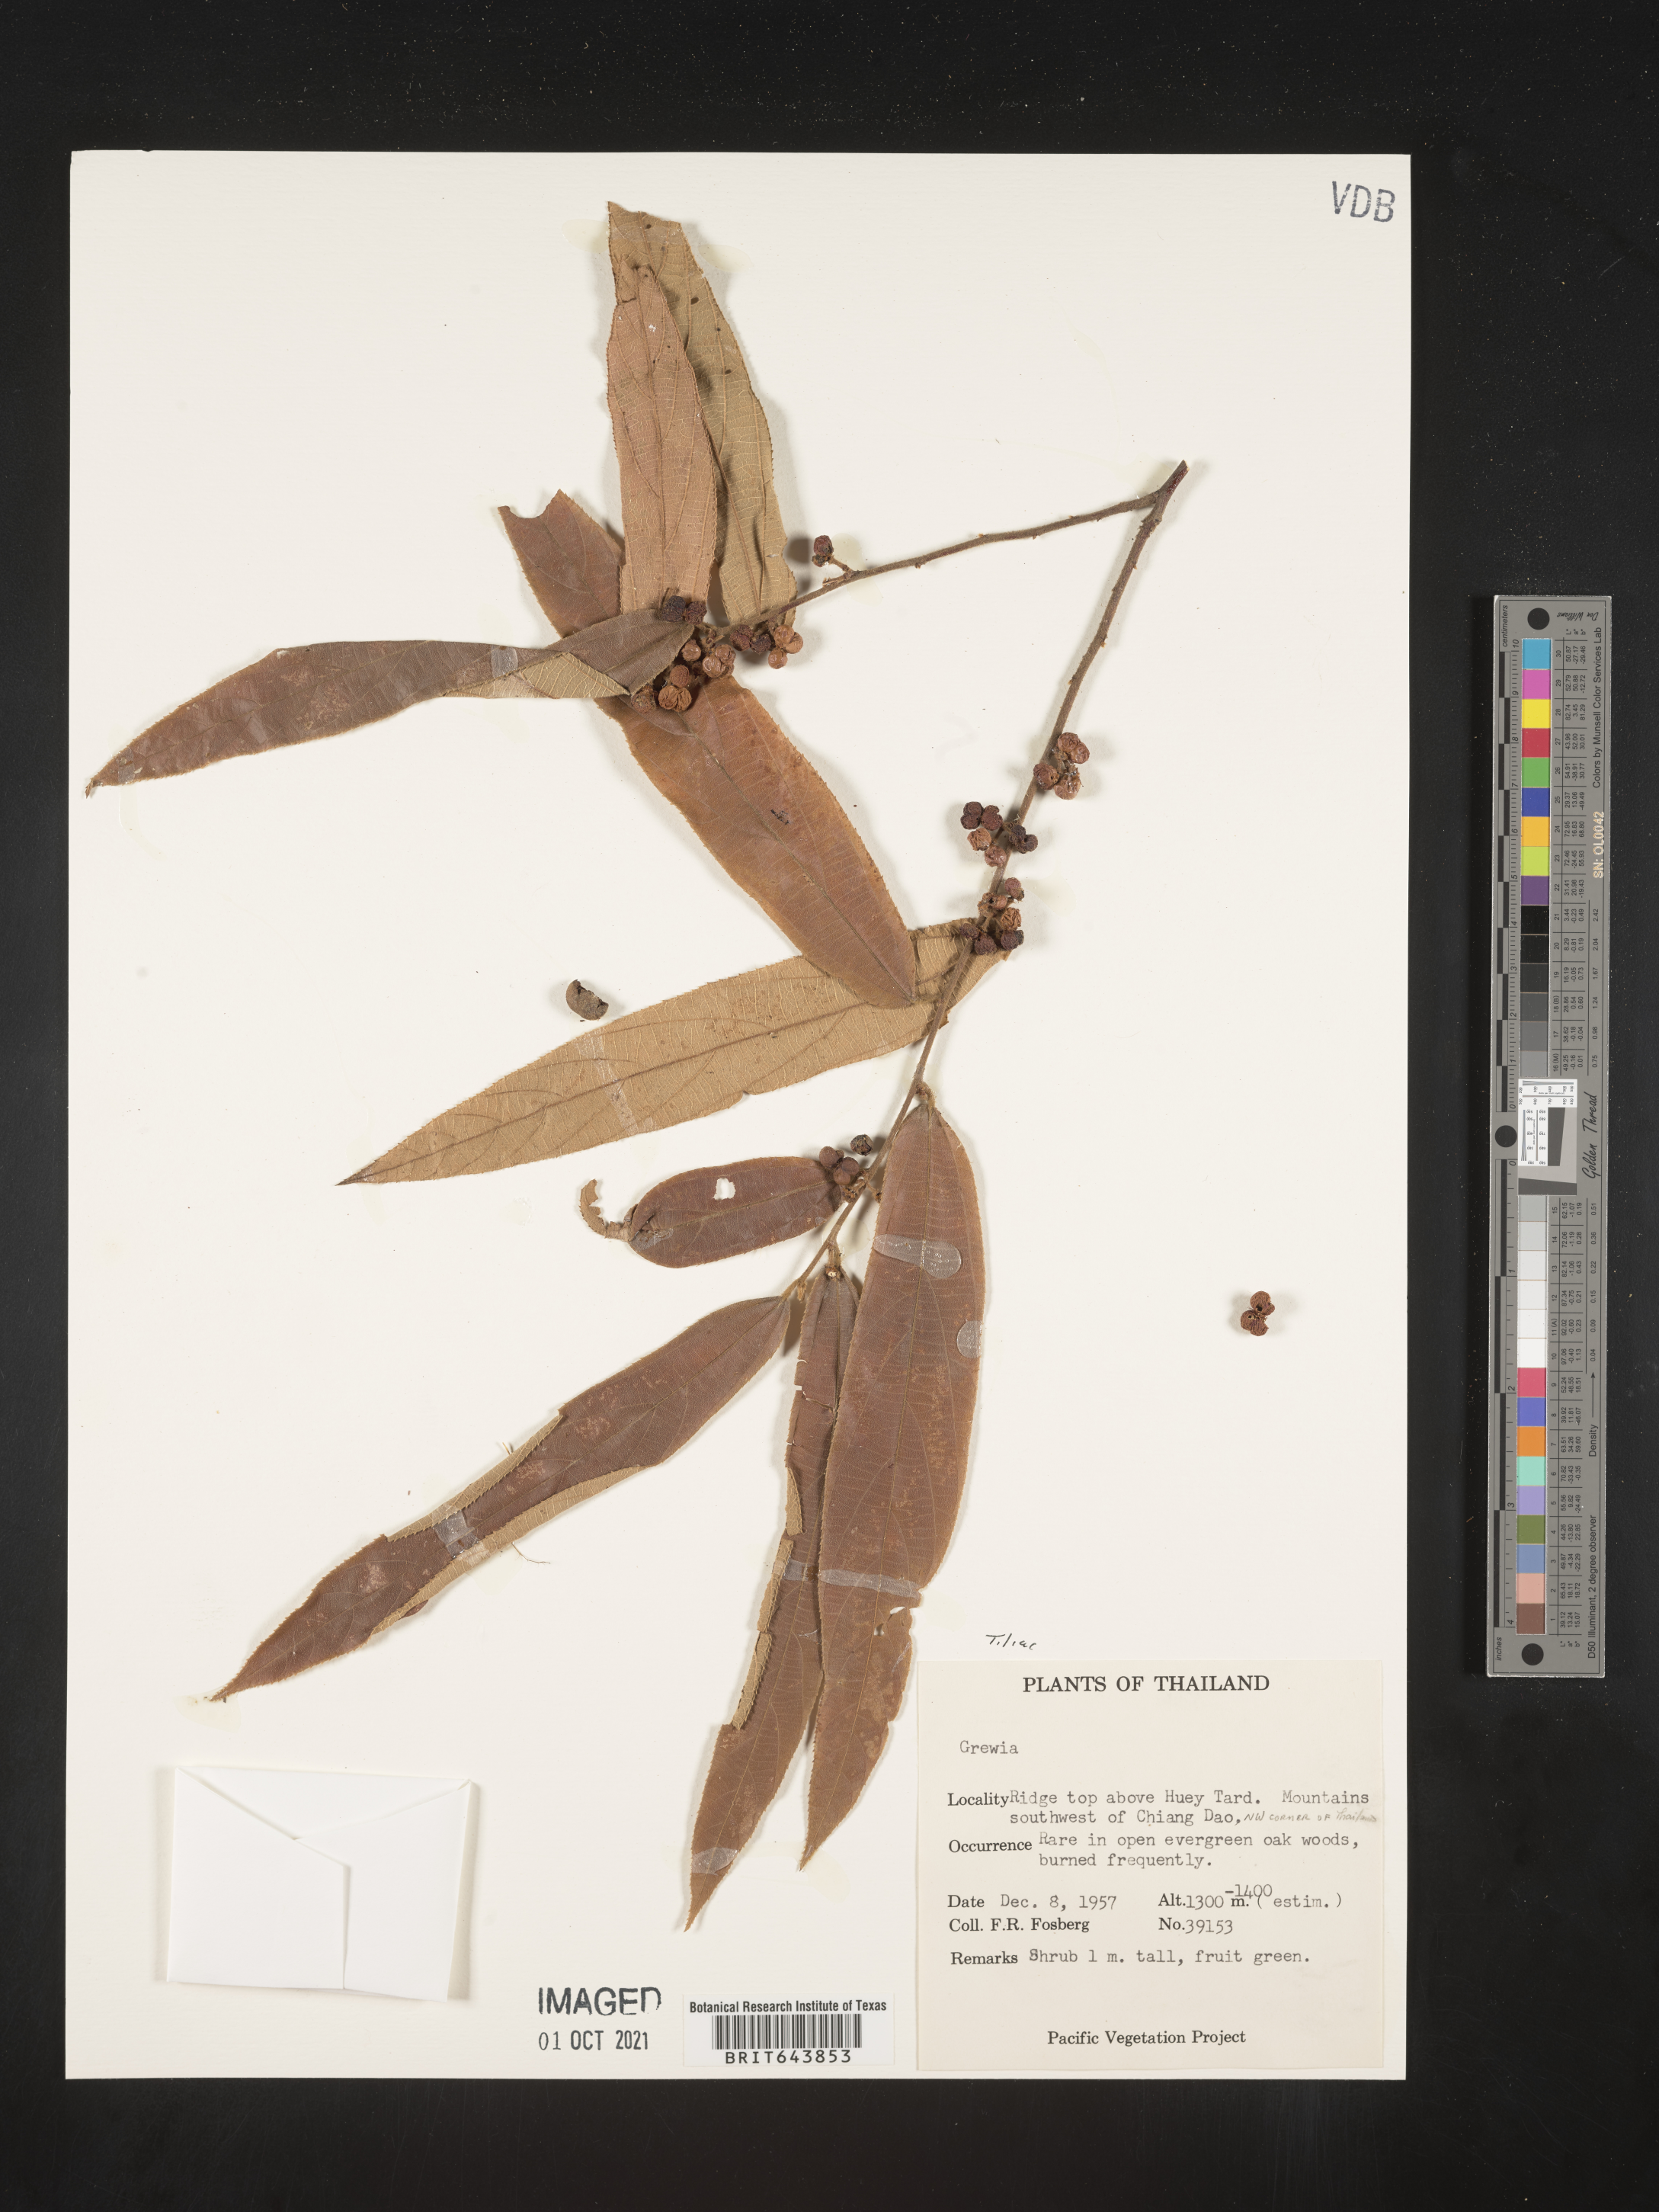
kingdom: Plantae
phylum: Tracheophyta
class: Magnoliopsida
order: Malvales
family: Malvaceae
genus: Grewia
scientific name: Grewia
